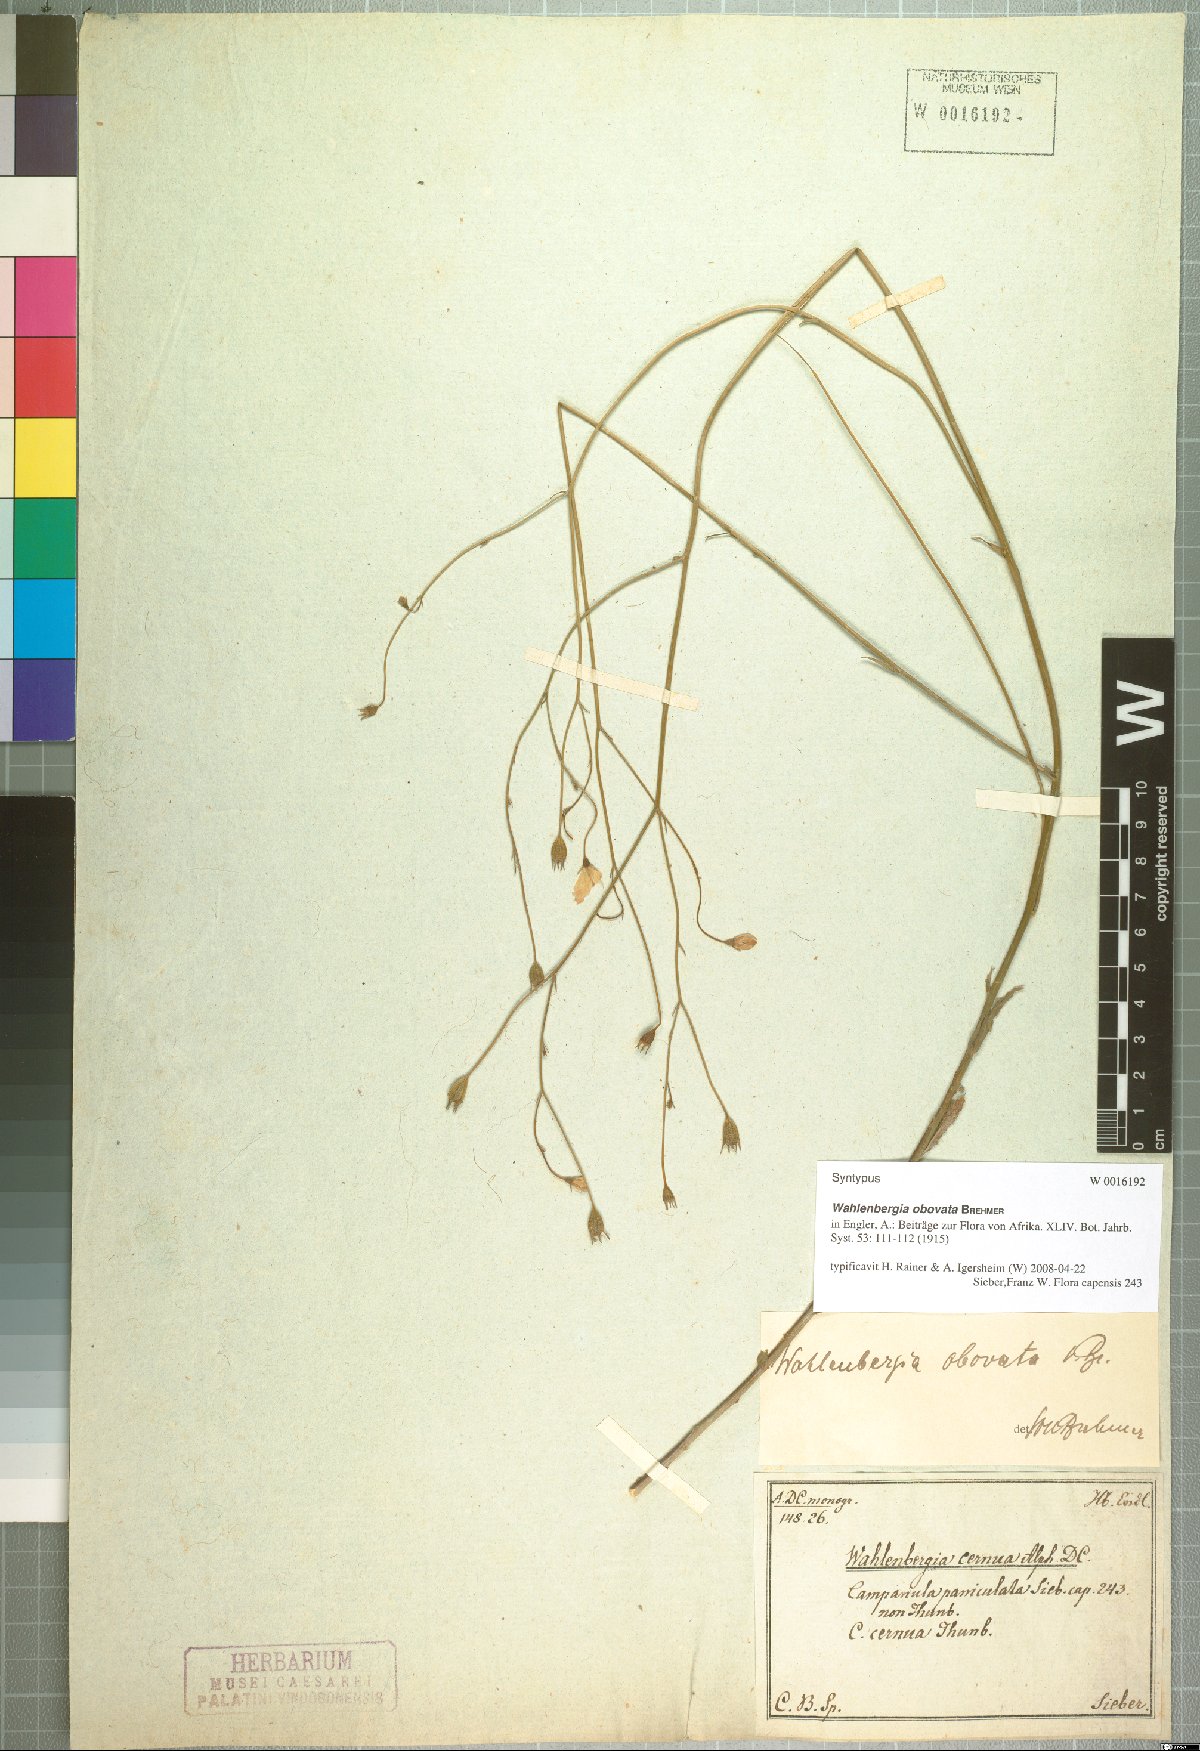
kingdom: Plantae
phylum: Tracheophyta
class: Magnoliopsida
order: Asterales
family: Campanulaceae
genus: Wahlenbergia
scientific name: Wahlenbergia obovata
